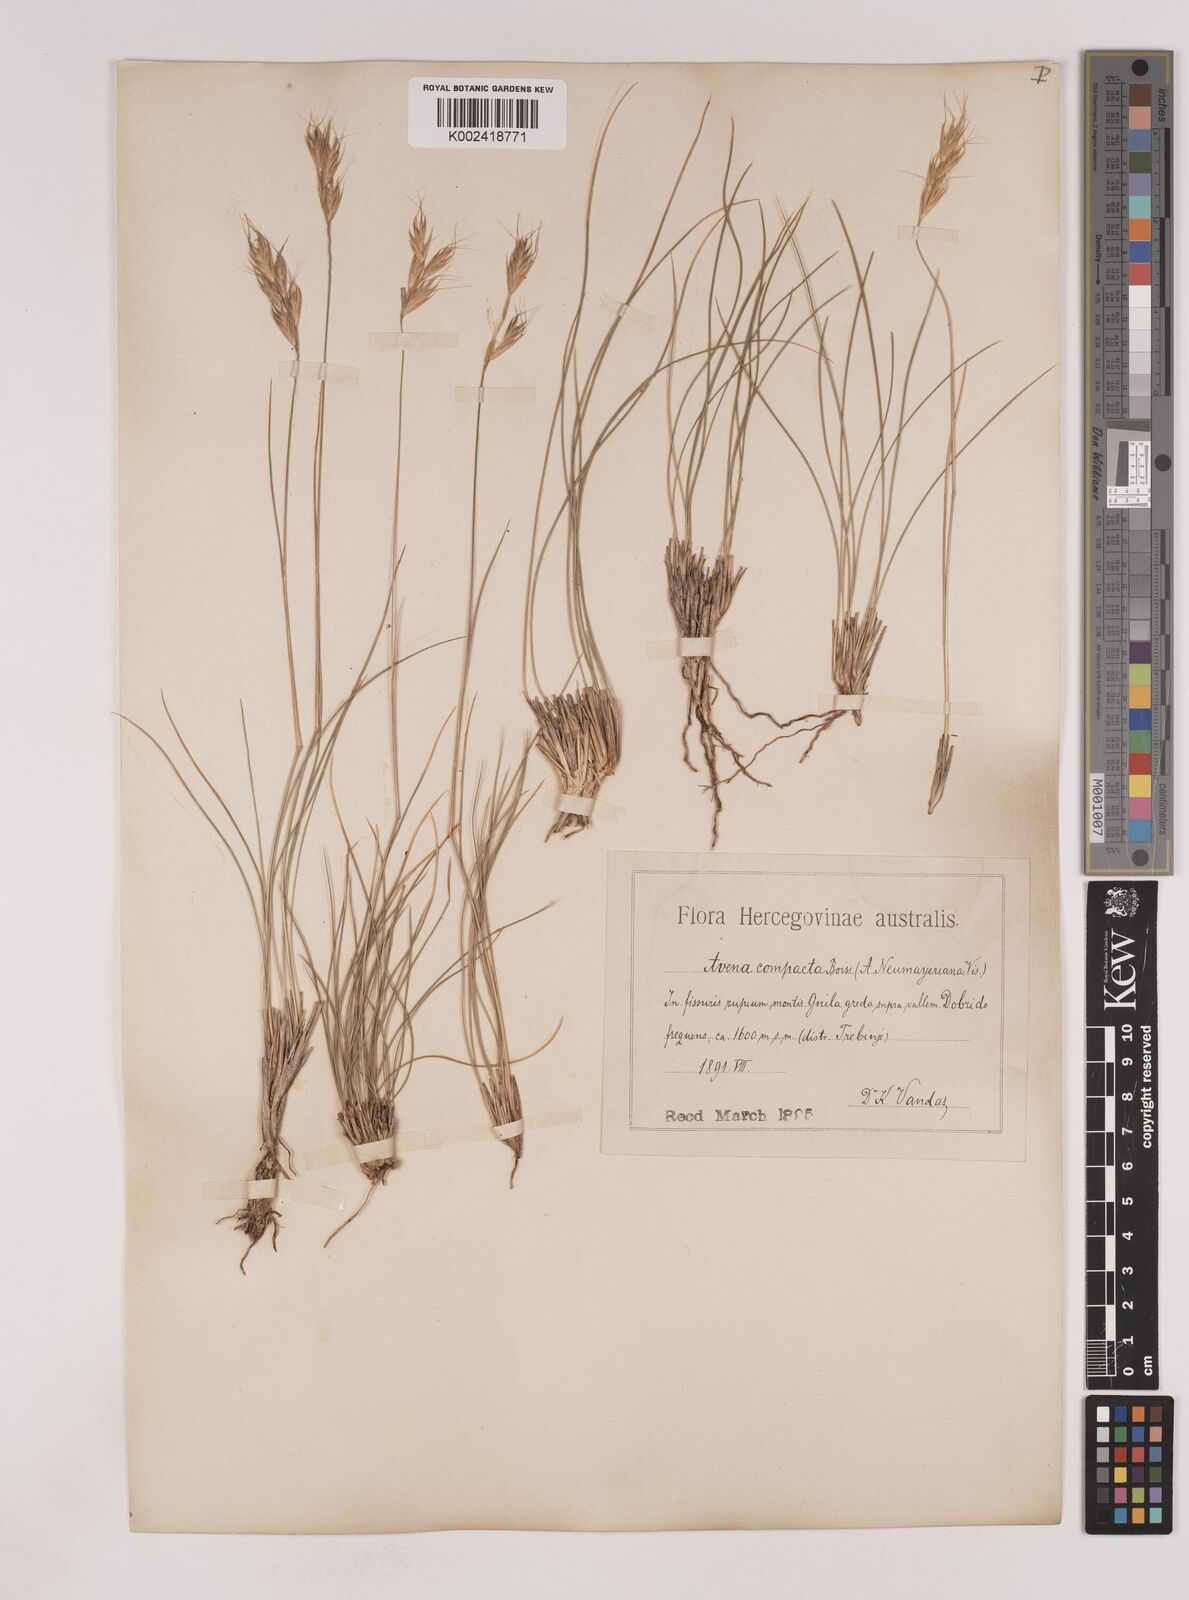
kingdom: Plantae
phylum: Tracheophyta
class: Liliopsida
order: Poales
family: Poaceae
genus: Danthoniastrum
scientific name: Danthoniastrum compactum
